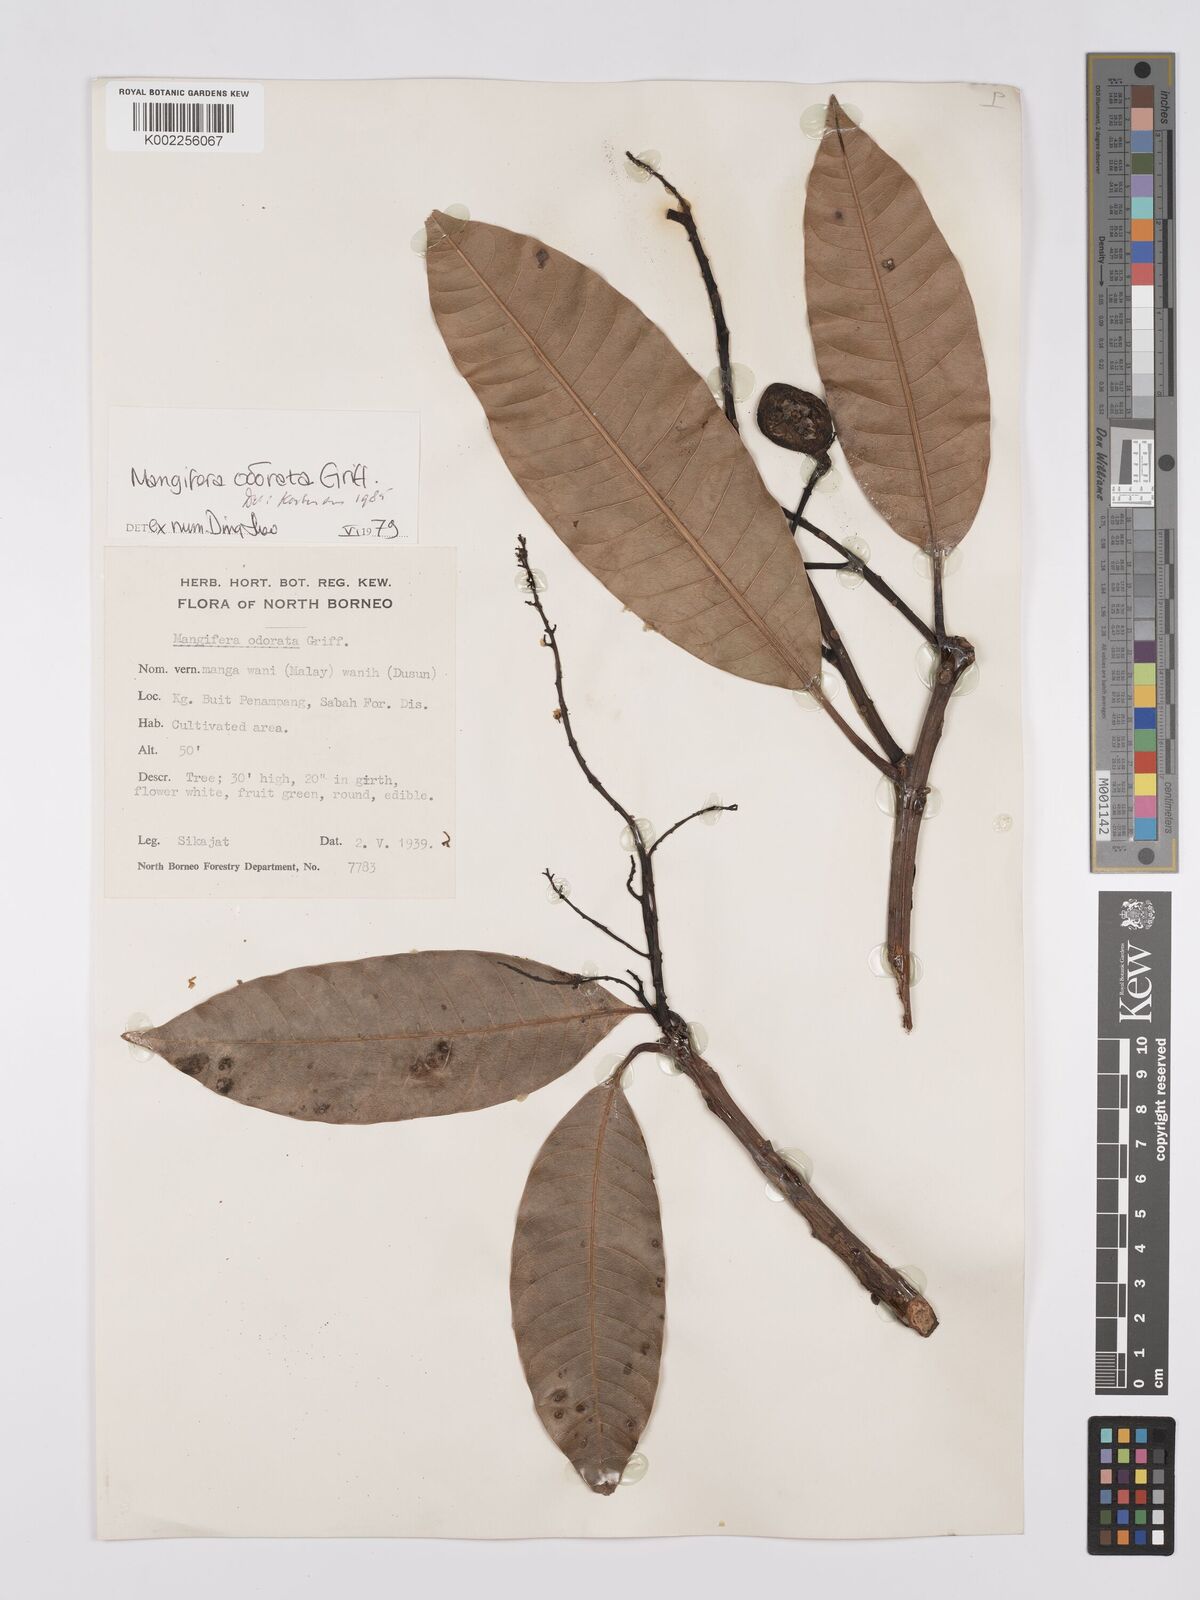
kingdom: Plantae
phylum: Tracheophyta
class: Magnoliopsida
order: Sapindales
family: Anacardiaceae
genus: Mangifera
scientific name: Mangifera odorata
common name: Saipan mango
